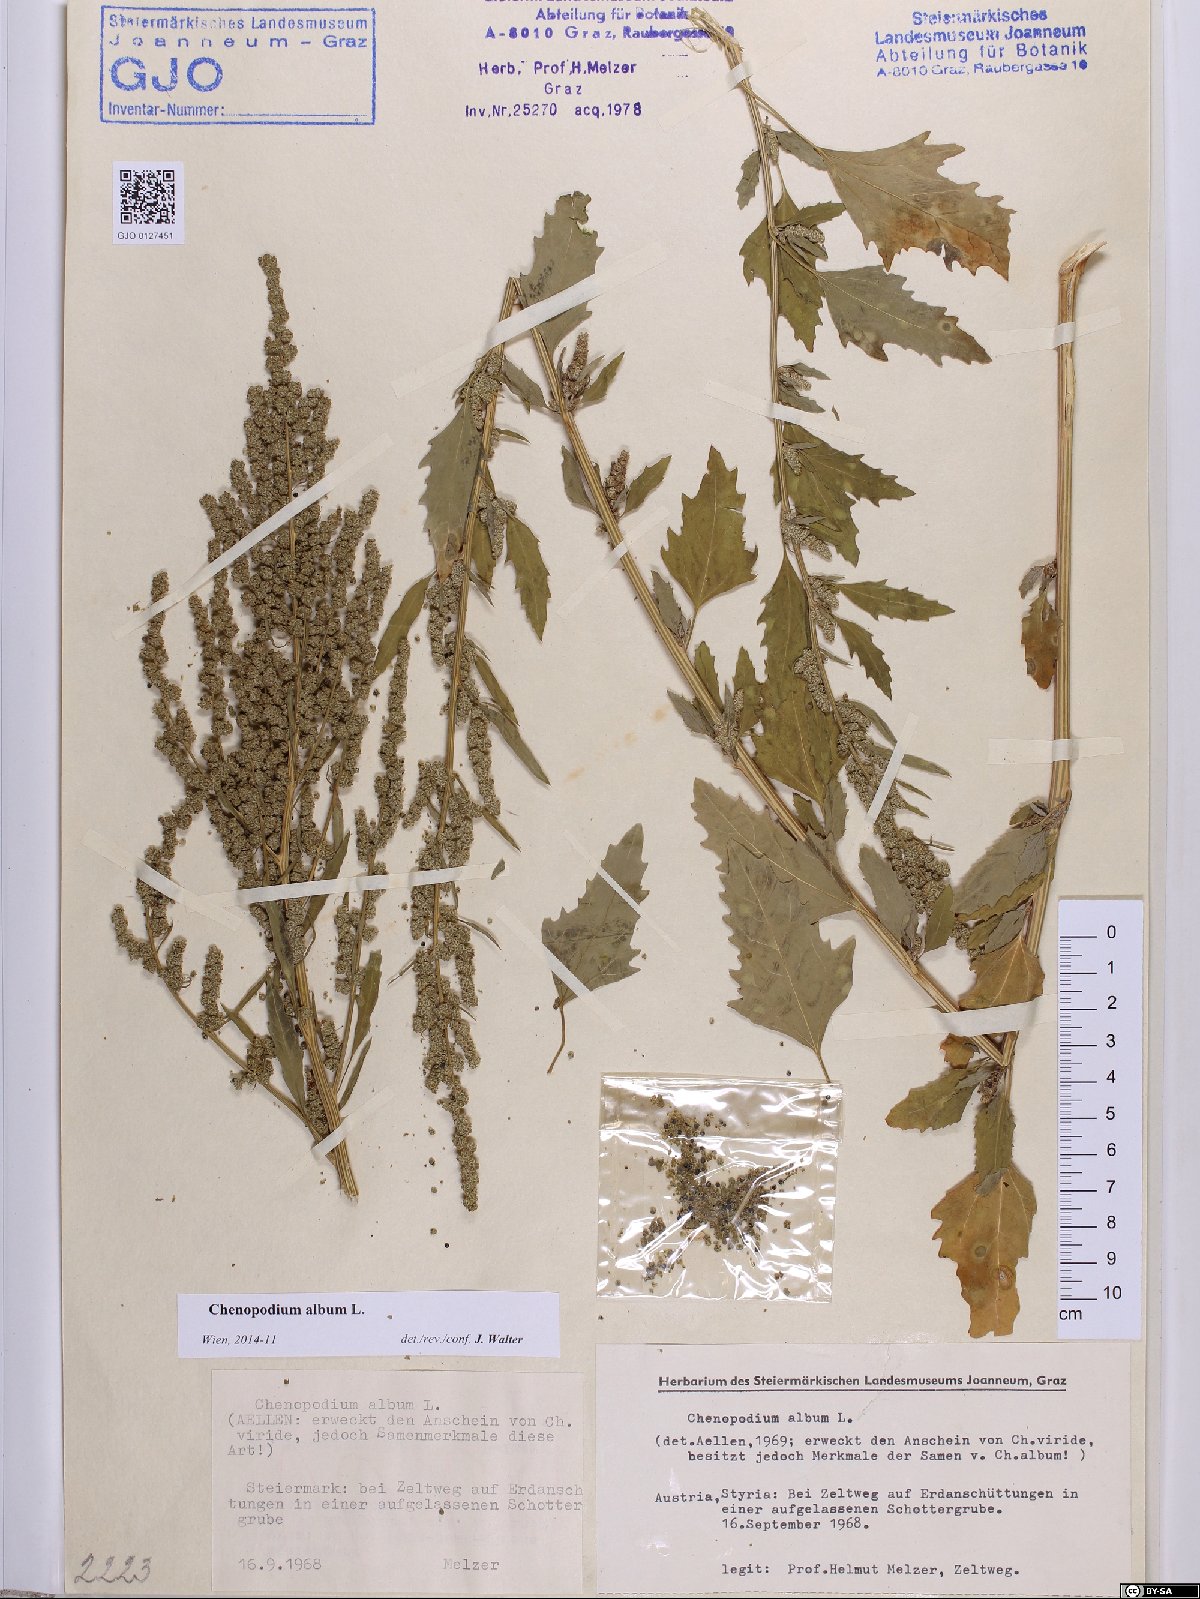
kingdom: Plantae
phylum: Tracheophyta
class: Magnoliopsida
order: Caryophyllales
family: Amaranthaceae
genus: Chenopodium
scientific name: Chenopodium album
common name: Fat-hen
